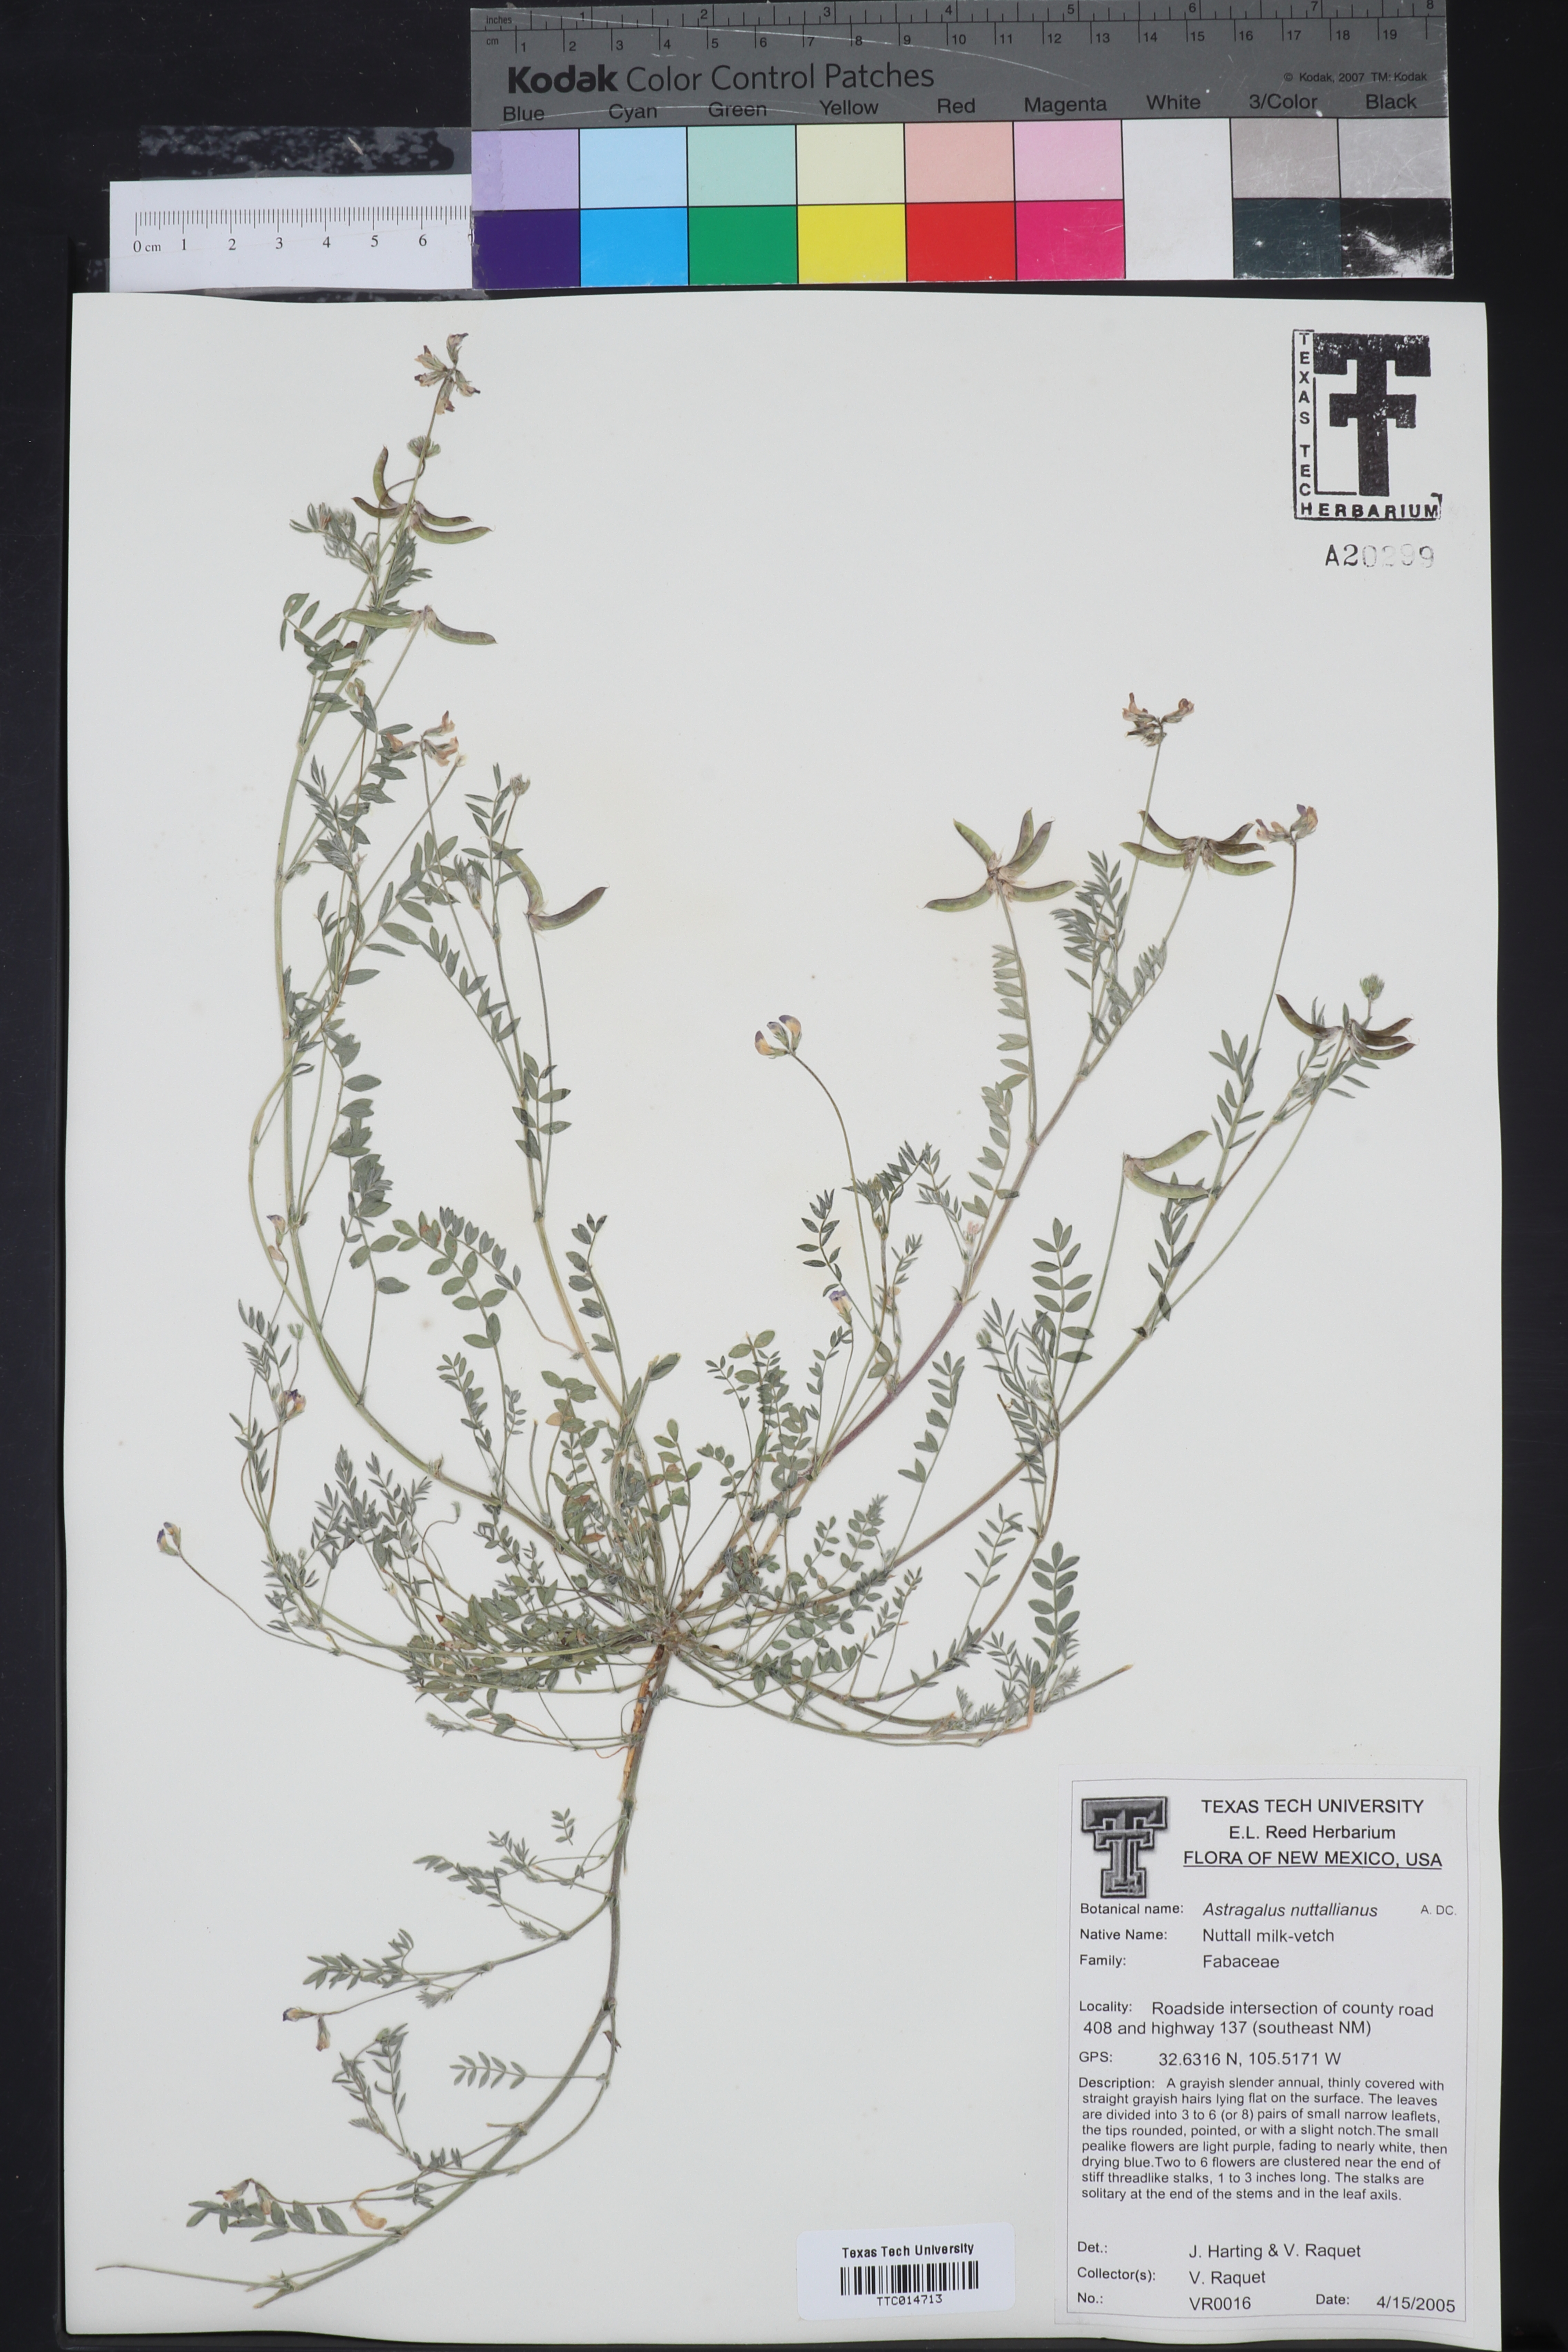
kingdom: Plantae
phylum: Tracheophyta
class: Magnoliopsida
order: Fabales
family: Fabaceae
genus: Astragalus
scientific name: Astragalus nuttallianus
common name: Smallflowered milkvetch
